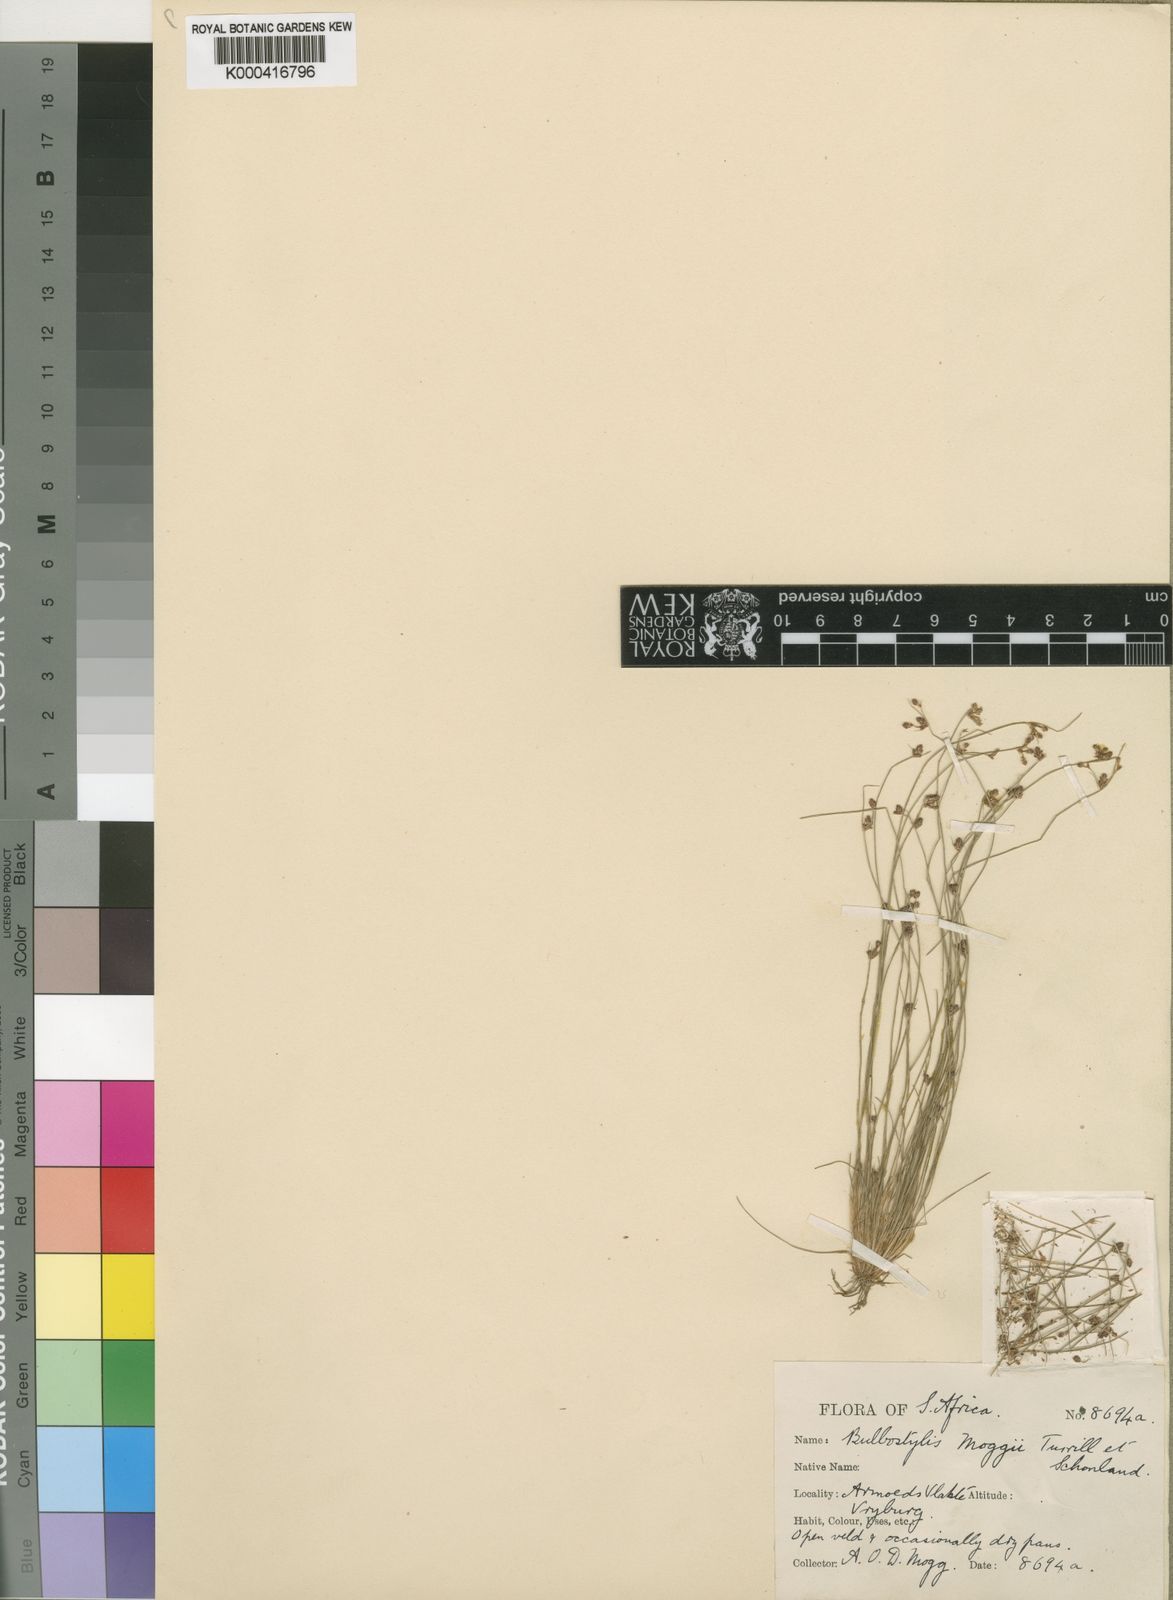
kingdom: Plantae
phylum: Tracheophyta
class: Liliopsida
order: Poales
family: Cyperaceae
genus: Bulbostylis
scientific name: Bulbostylis melanocephala
